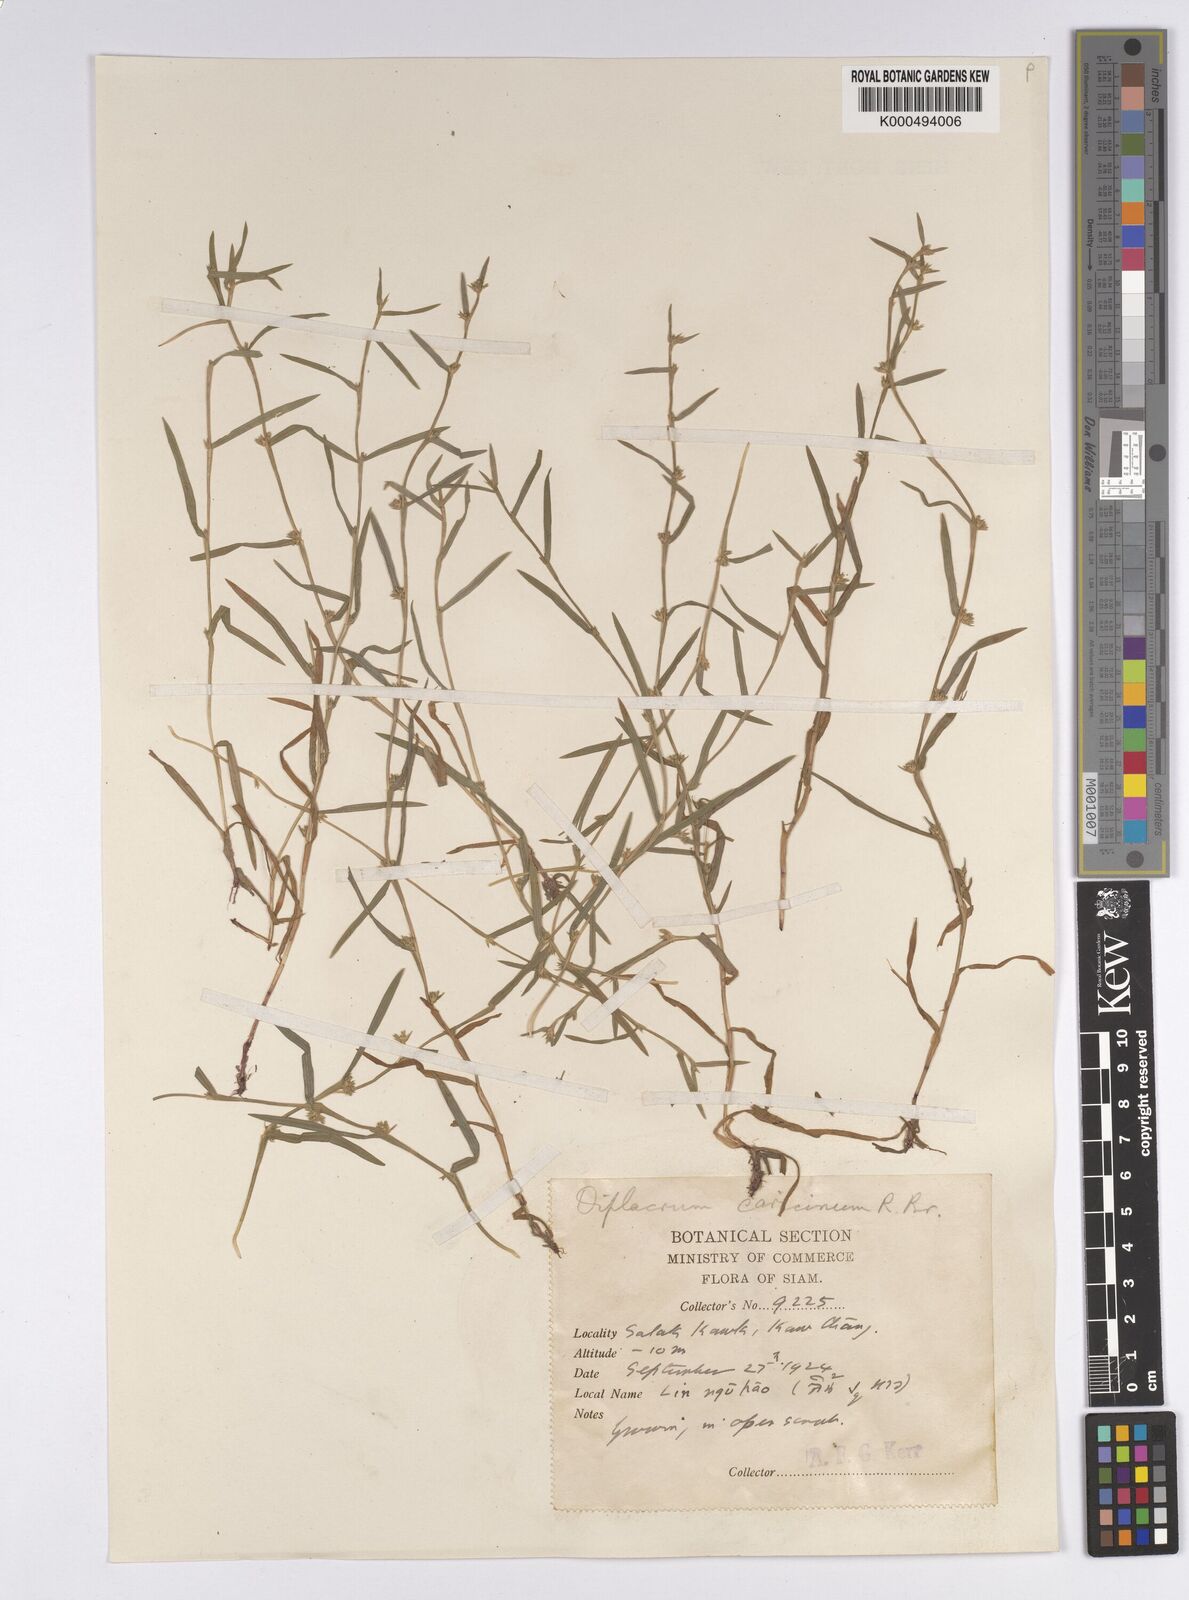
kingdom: Plantae
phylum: Tracheophyta
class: Liliopsida
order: Poales
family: Cyperaceae
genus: Diplacrum
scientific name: Diplacrum caricinum
